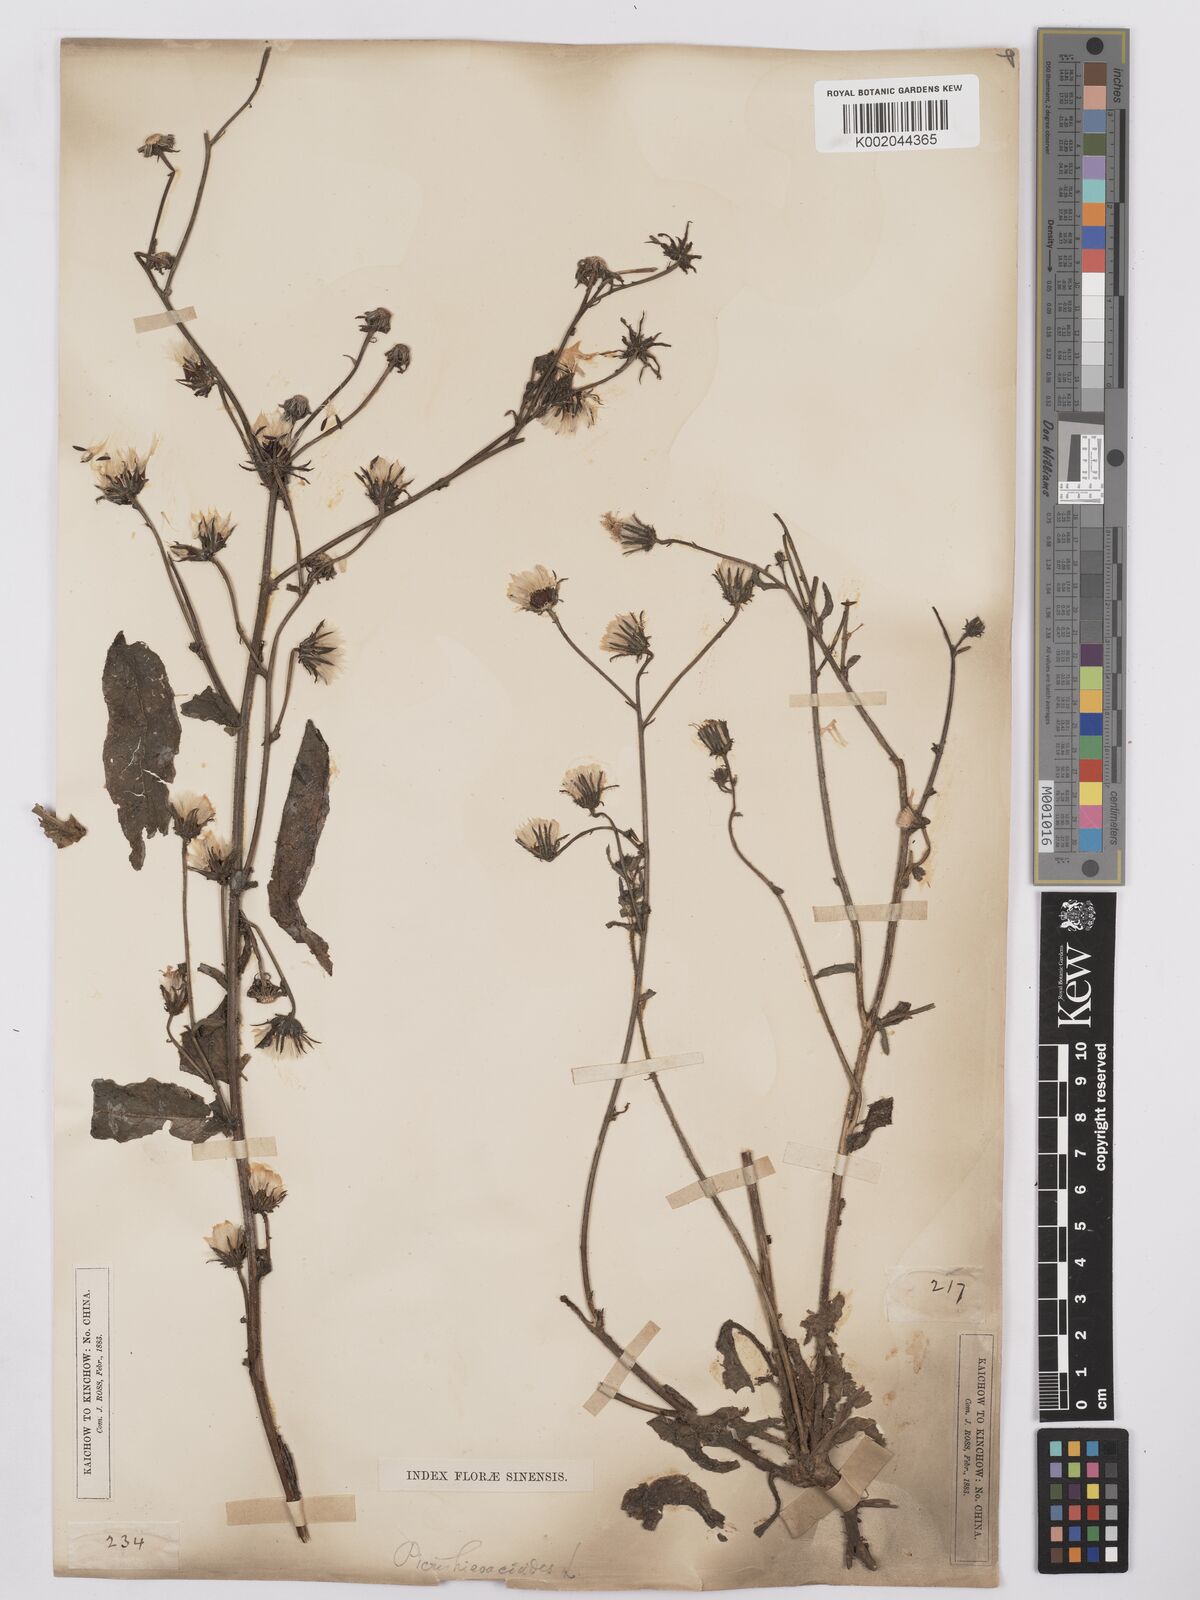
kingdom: Plantae
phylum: Tracheophyta
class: Magnoliopsida
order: Asterales
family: Asteraceae
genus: Picris
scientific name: Picris hieracioides
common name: Hawkweed oxtongue
